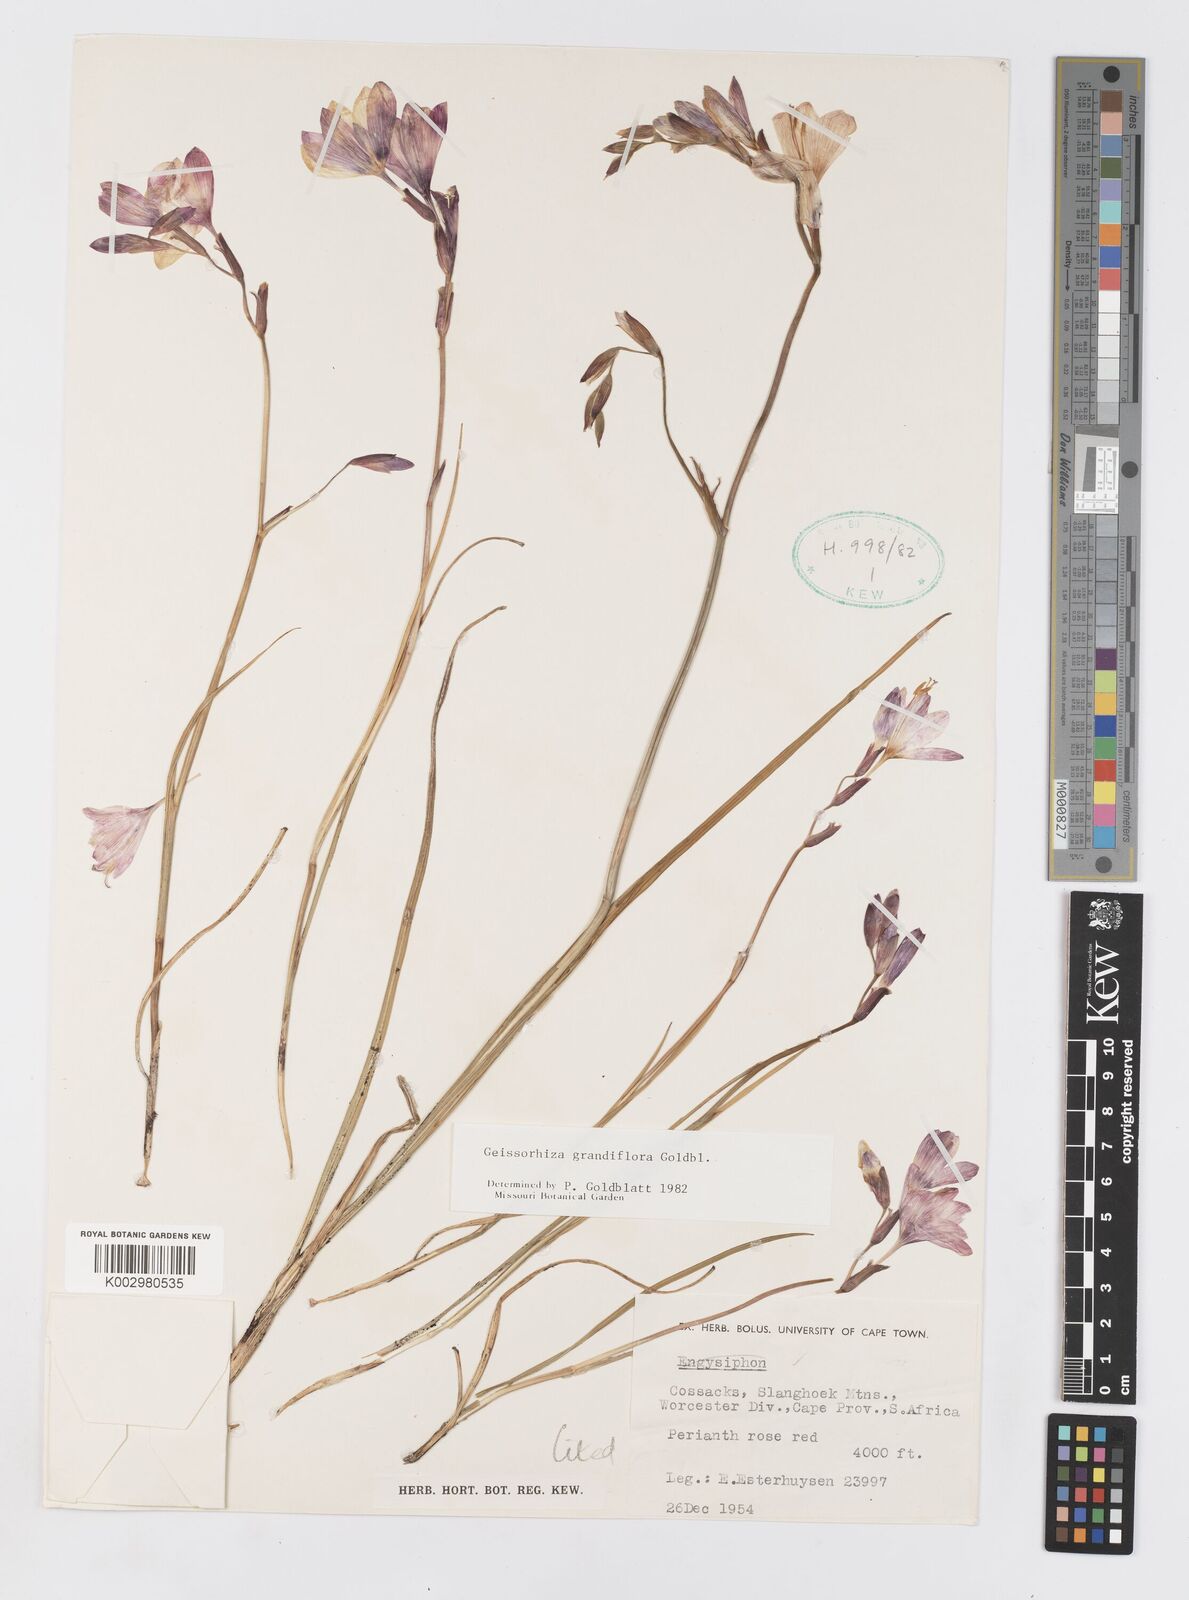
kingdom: Plantae
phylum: Tracheophyta
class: Liliopsida
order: Asparagales
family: Iridaceae
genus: Geissorhiza
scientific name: Geissorhiza grandiflora
